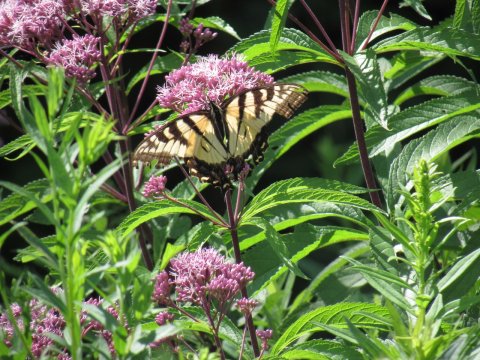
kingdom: Animalia
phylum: Arthropoda
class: Insecta
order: Lepidoptera
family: Papilionidae
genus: Pterourus
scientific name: Pterourus
